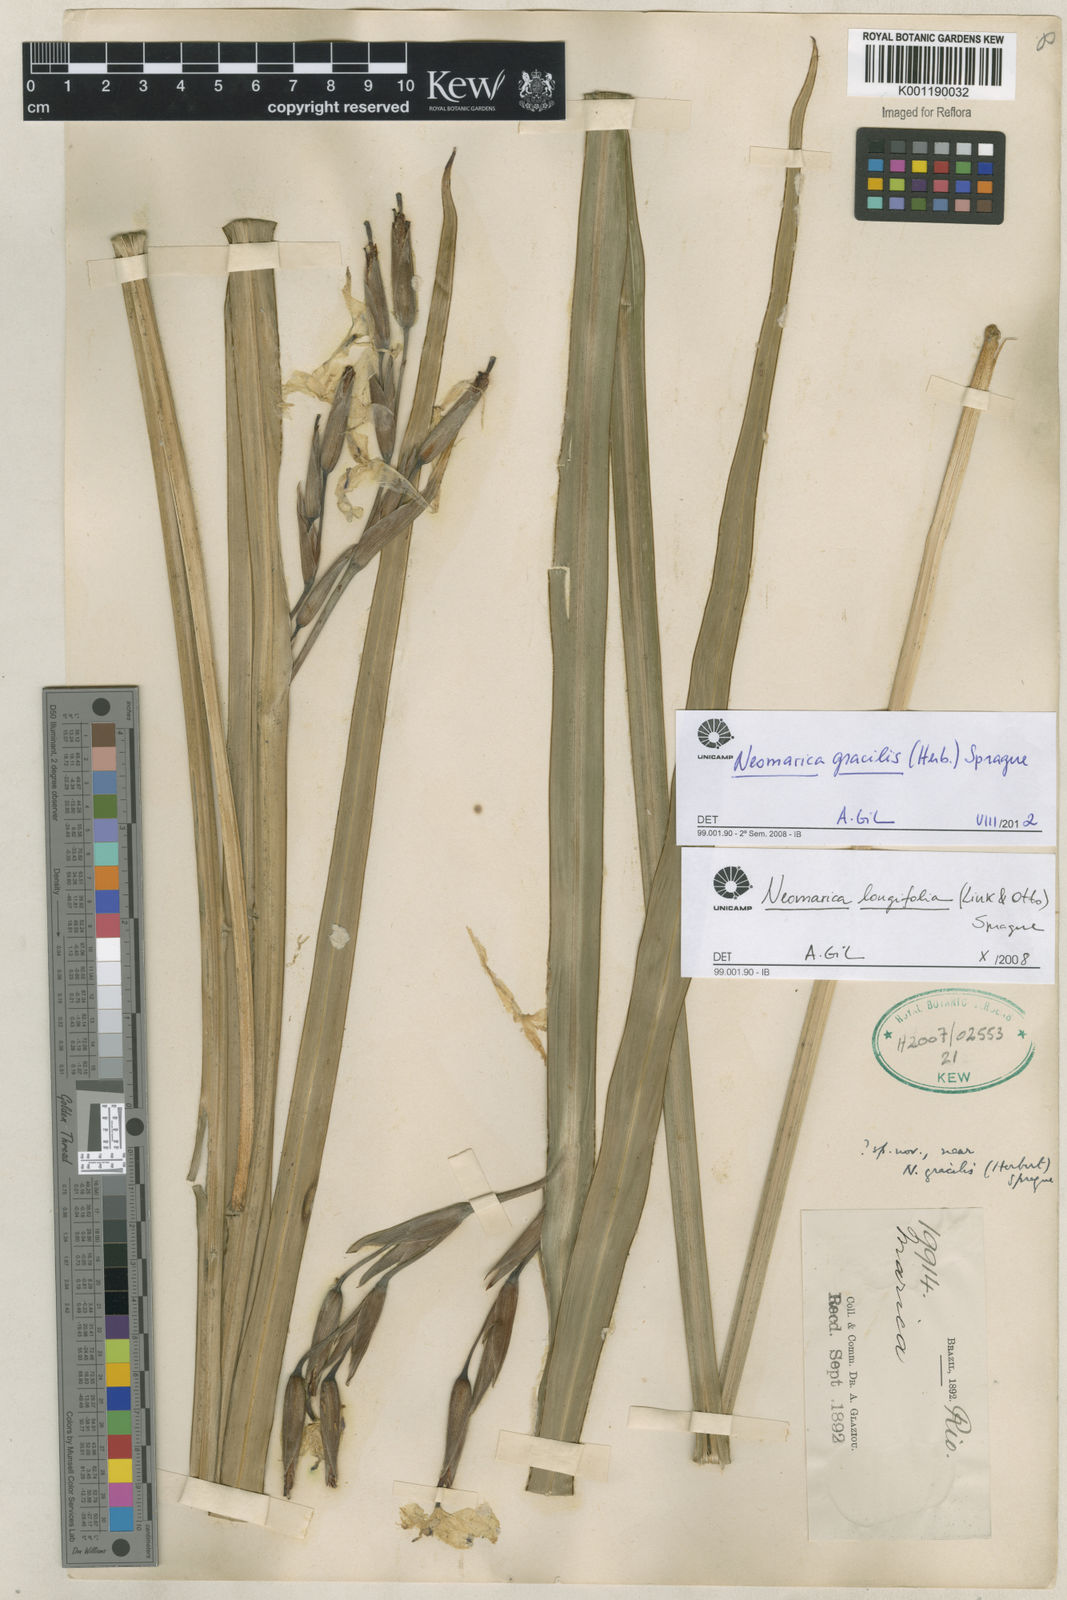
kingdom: Plantae
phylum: Tracheophyta
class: Liliopsida
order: Asparagales
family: Iridaceae
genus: Trimezia
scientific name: Trimezia gracilis
